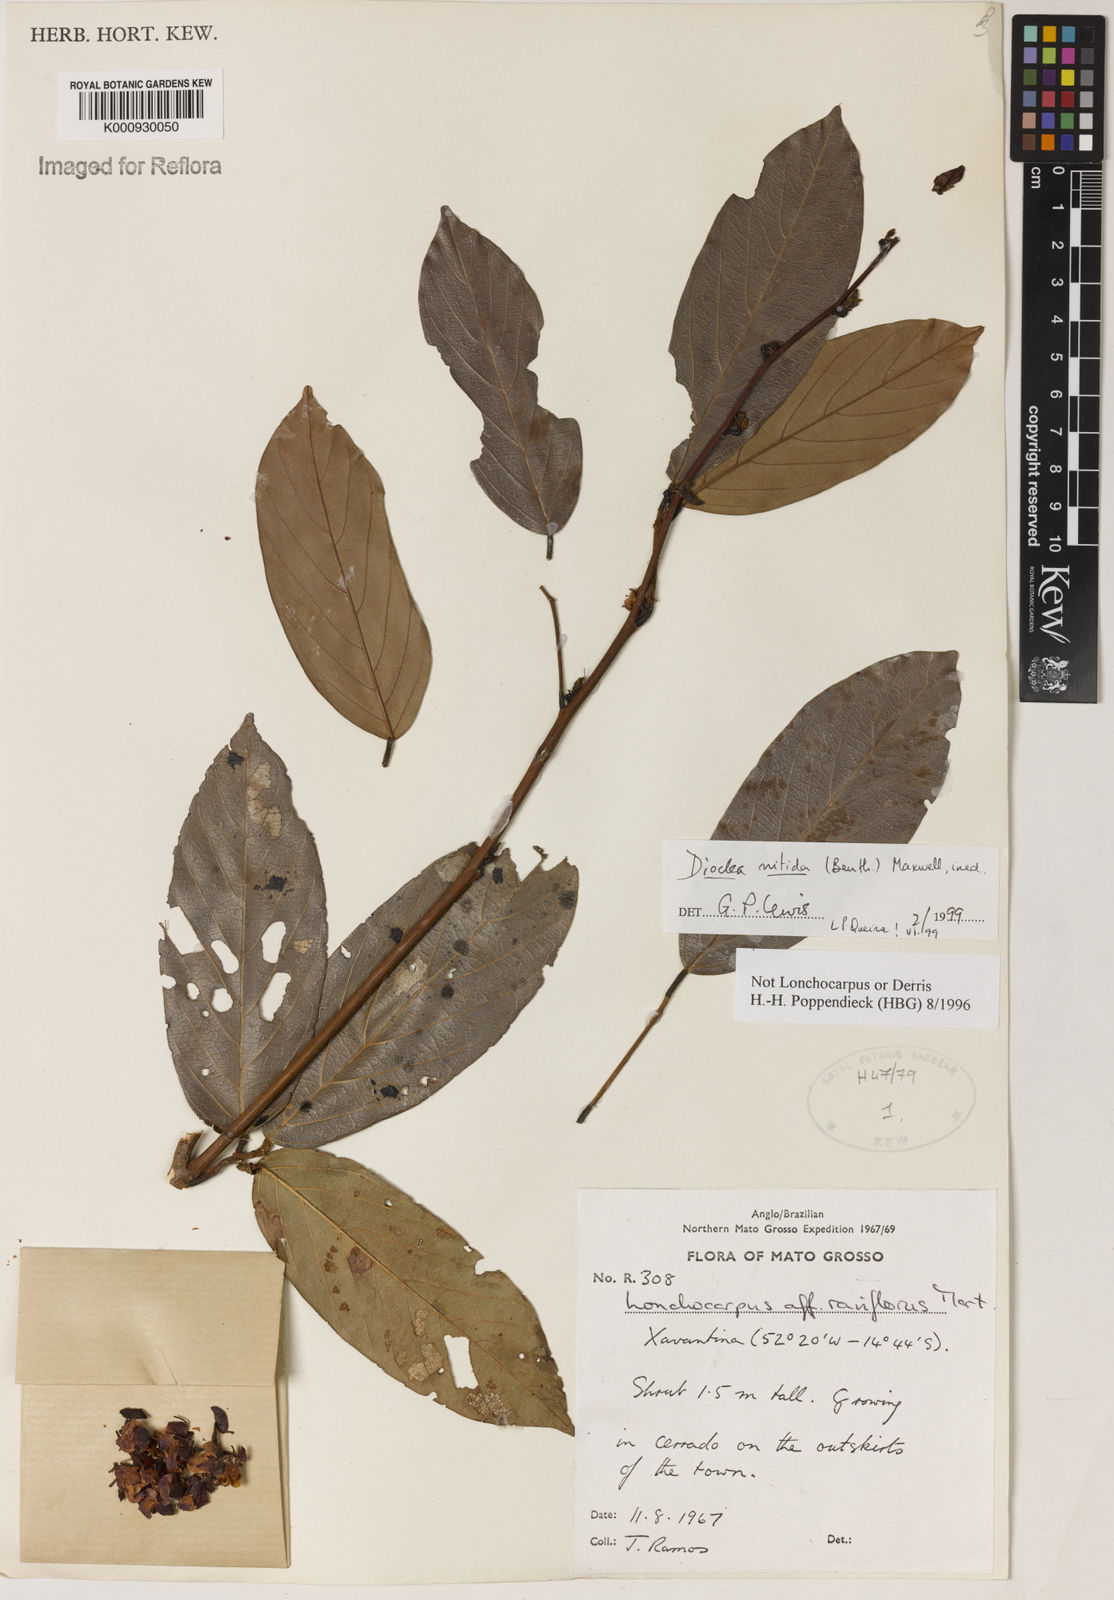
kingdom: Plantae
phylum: Tracheophyta
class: Magnoliopsida
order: Fabales
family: Fabaceae
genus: Dioclea
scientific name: Dioclea
